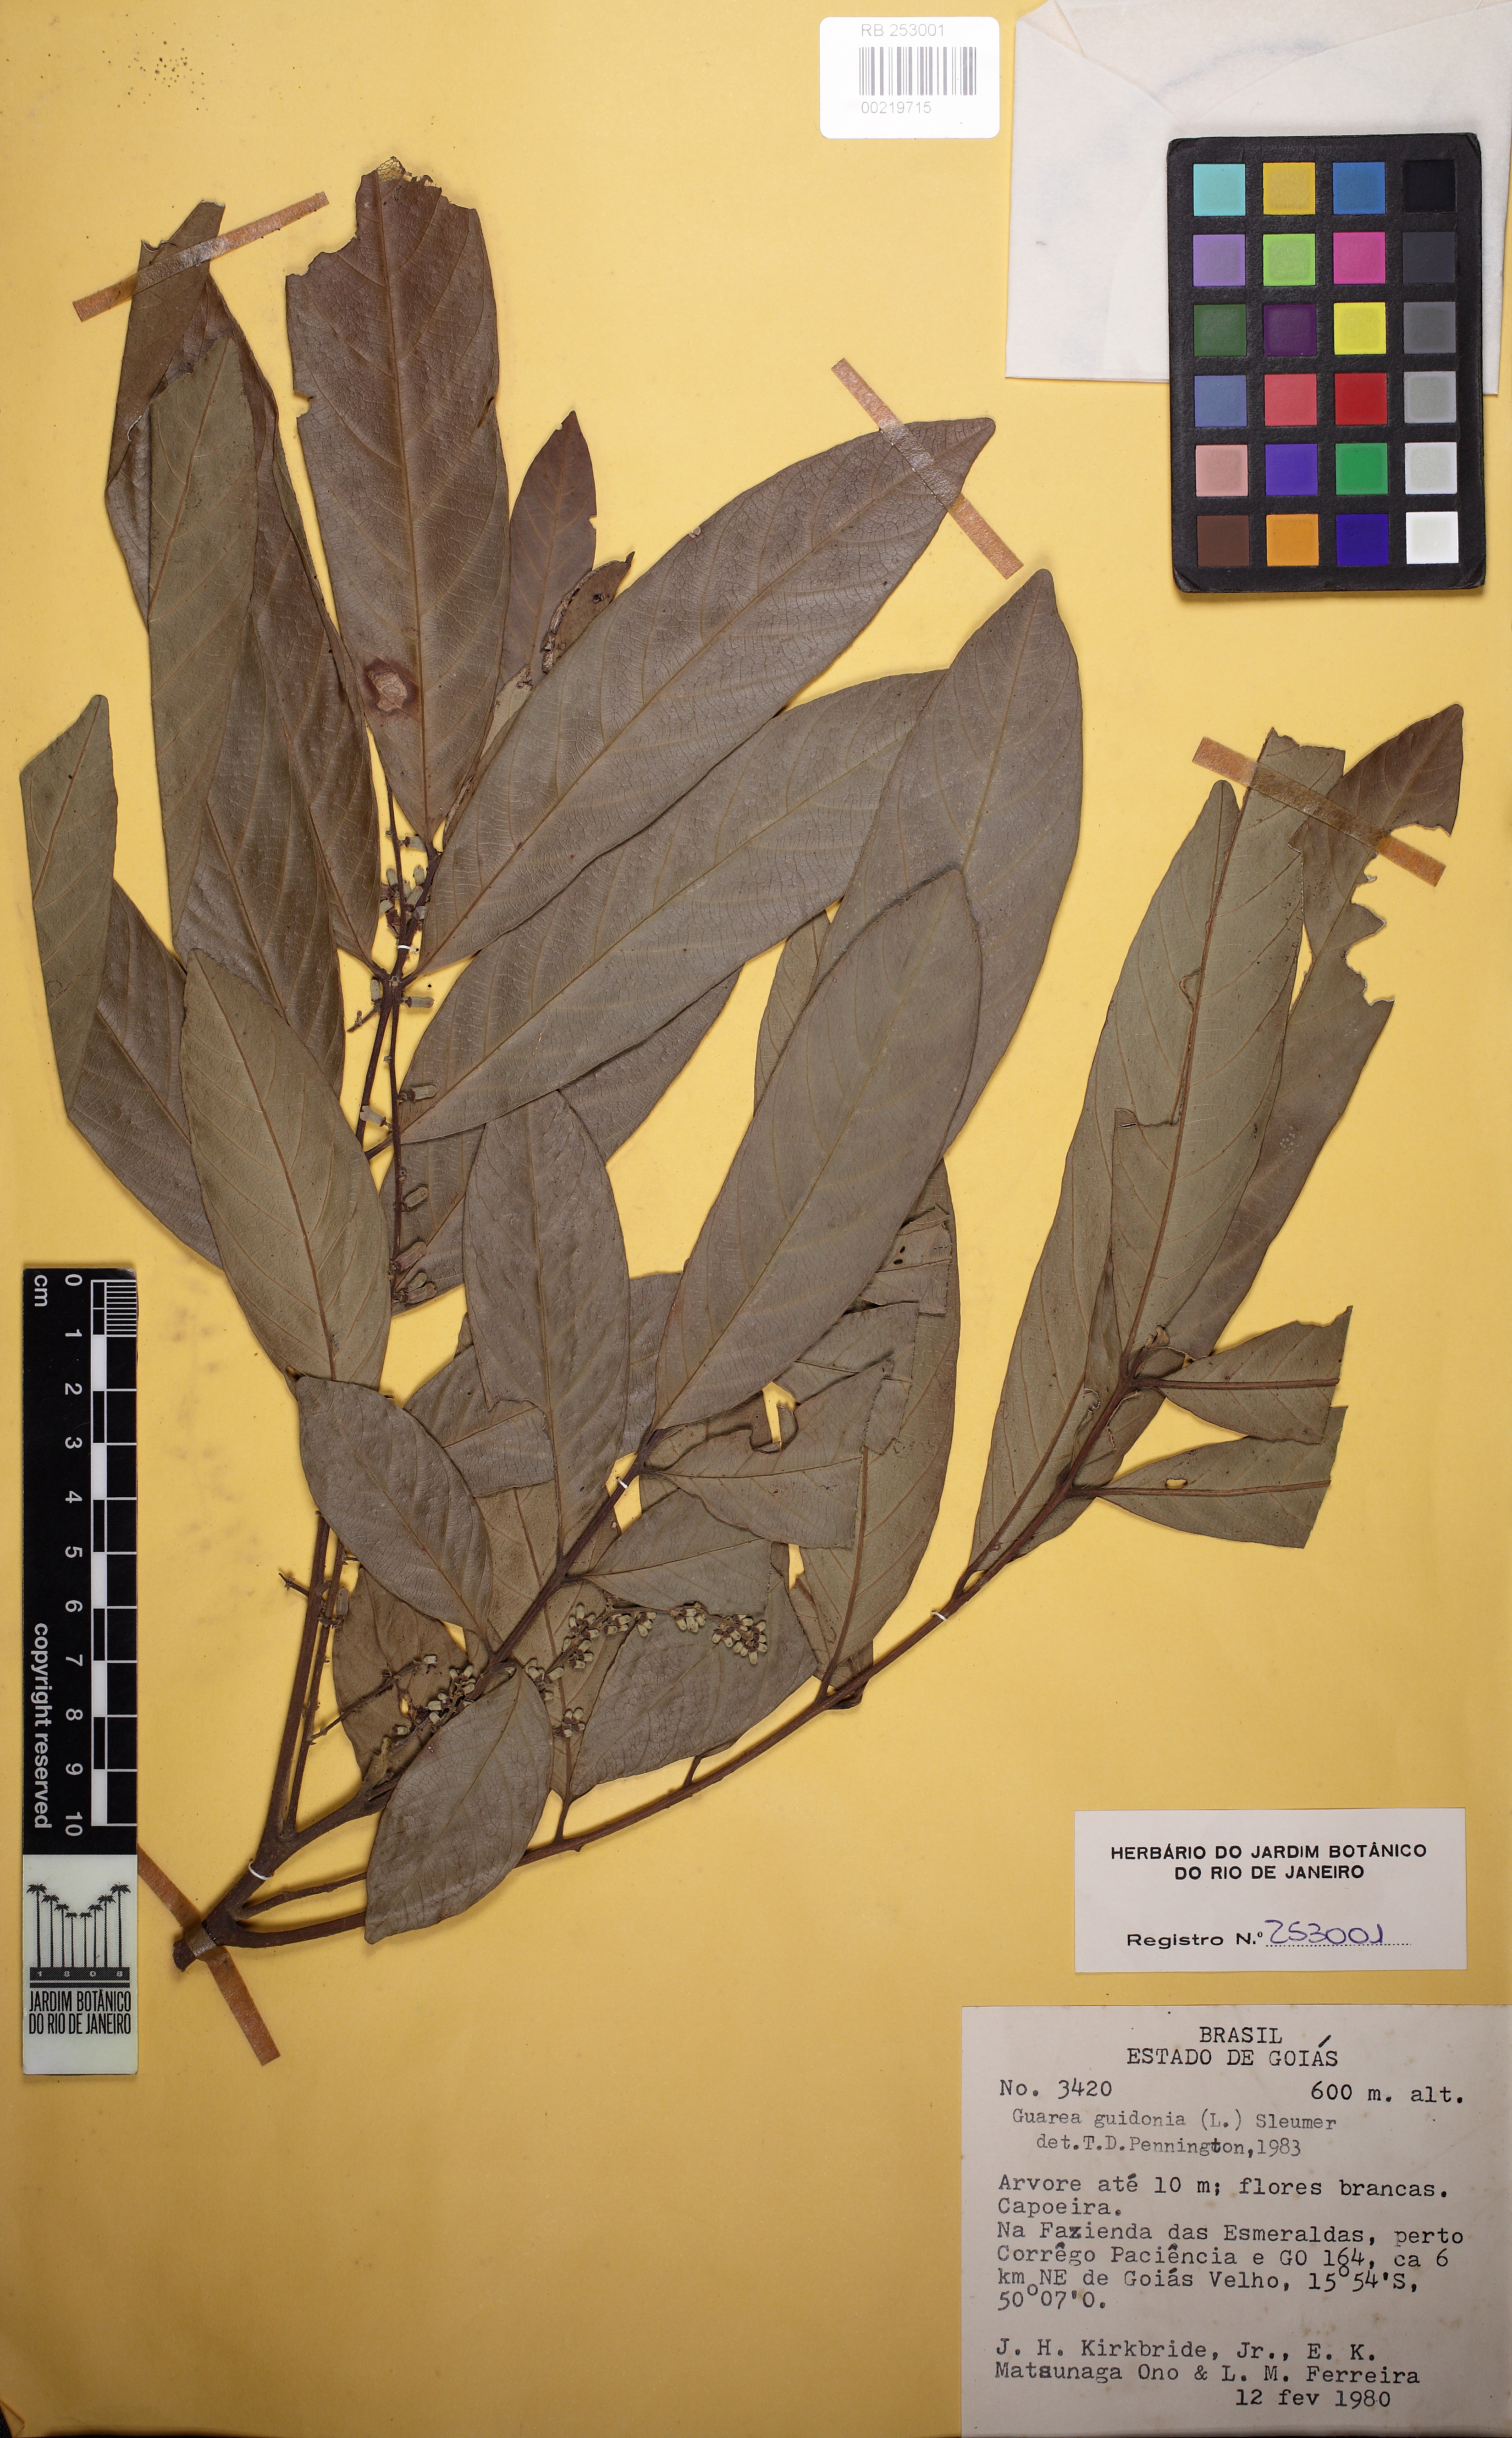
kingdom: Plantae
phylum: Tracheophyta
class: Magnoliopsida
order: Sapindales
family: Meliaceae
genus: Guarea
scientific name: Guarea guidonia
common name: American muskwood
